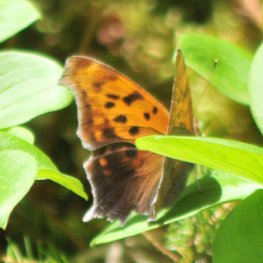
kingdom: Animalia
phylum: Arthropoda
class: Insecta
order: Lepidoptera
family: Nymphalidae
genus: Polygonia
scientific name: Polygonia interrogationis
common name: Question Mark
